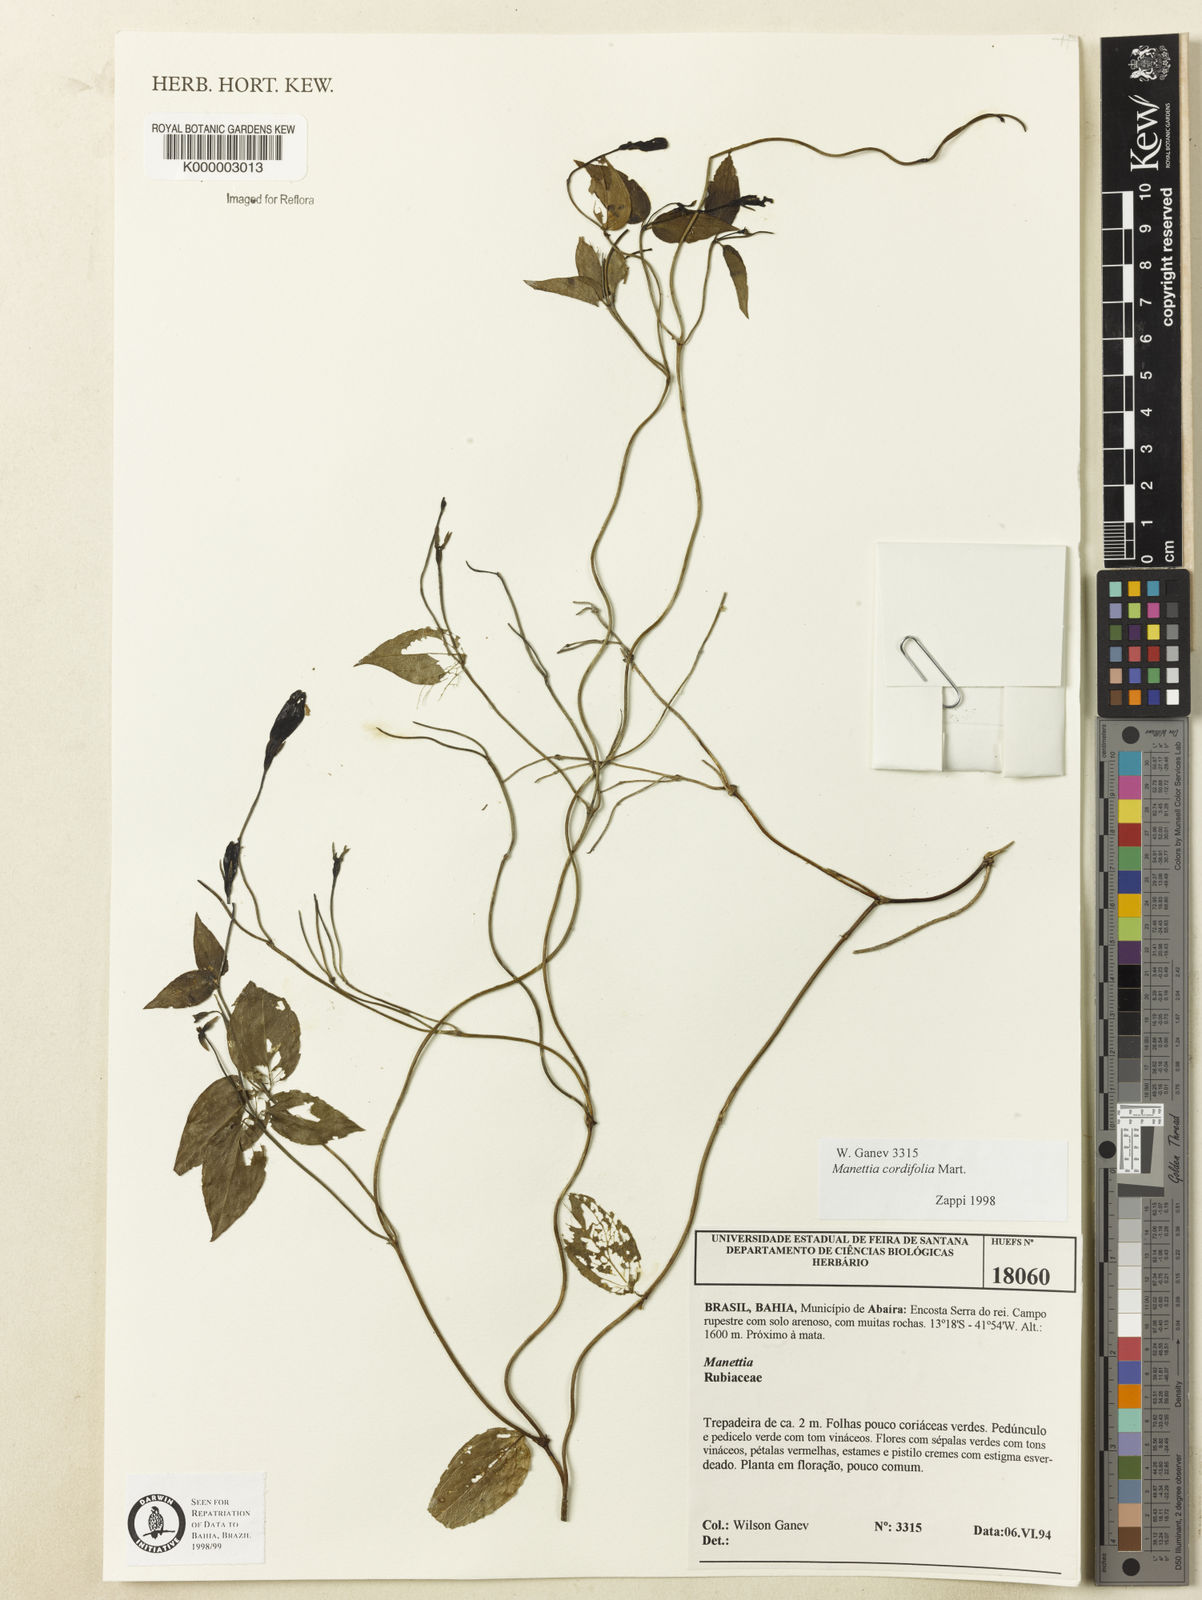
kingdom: Plantae
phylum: Tracheophyta
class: Magnoliopsida
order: Gentianales
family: Rubiaceae
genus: Manettia
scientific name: Manettia cordifolia
